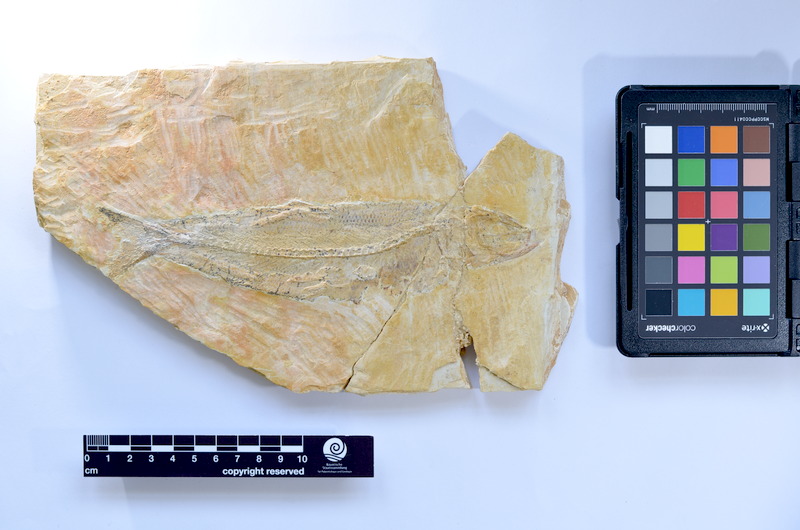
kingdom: Animalia
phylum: Chordata
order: Elopiformes
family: Anaethalionidae
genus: Anaethalion
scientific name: Anaethalion knorri
